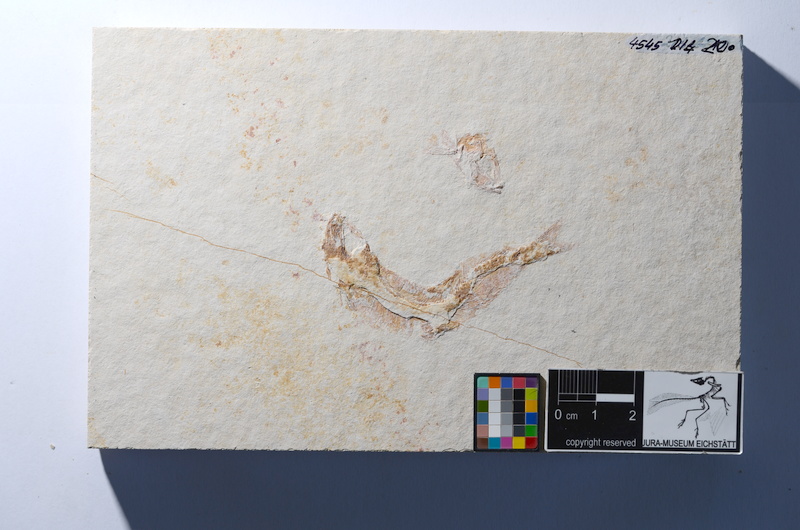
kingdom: Animalia
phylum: Chordata
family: Ascalaboidae
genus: Tharsis
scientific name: Tharsis dubius
